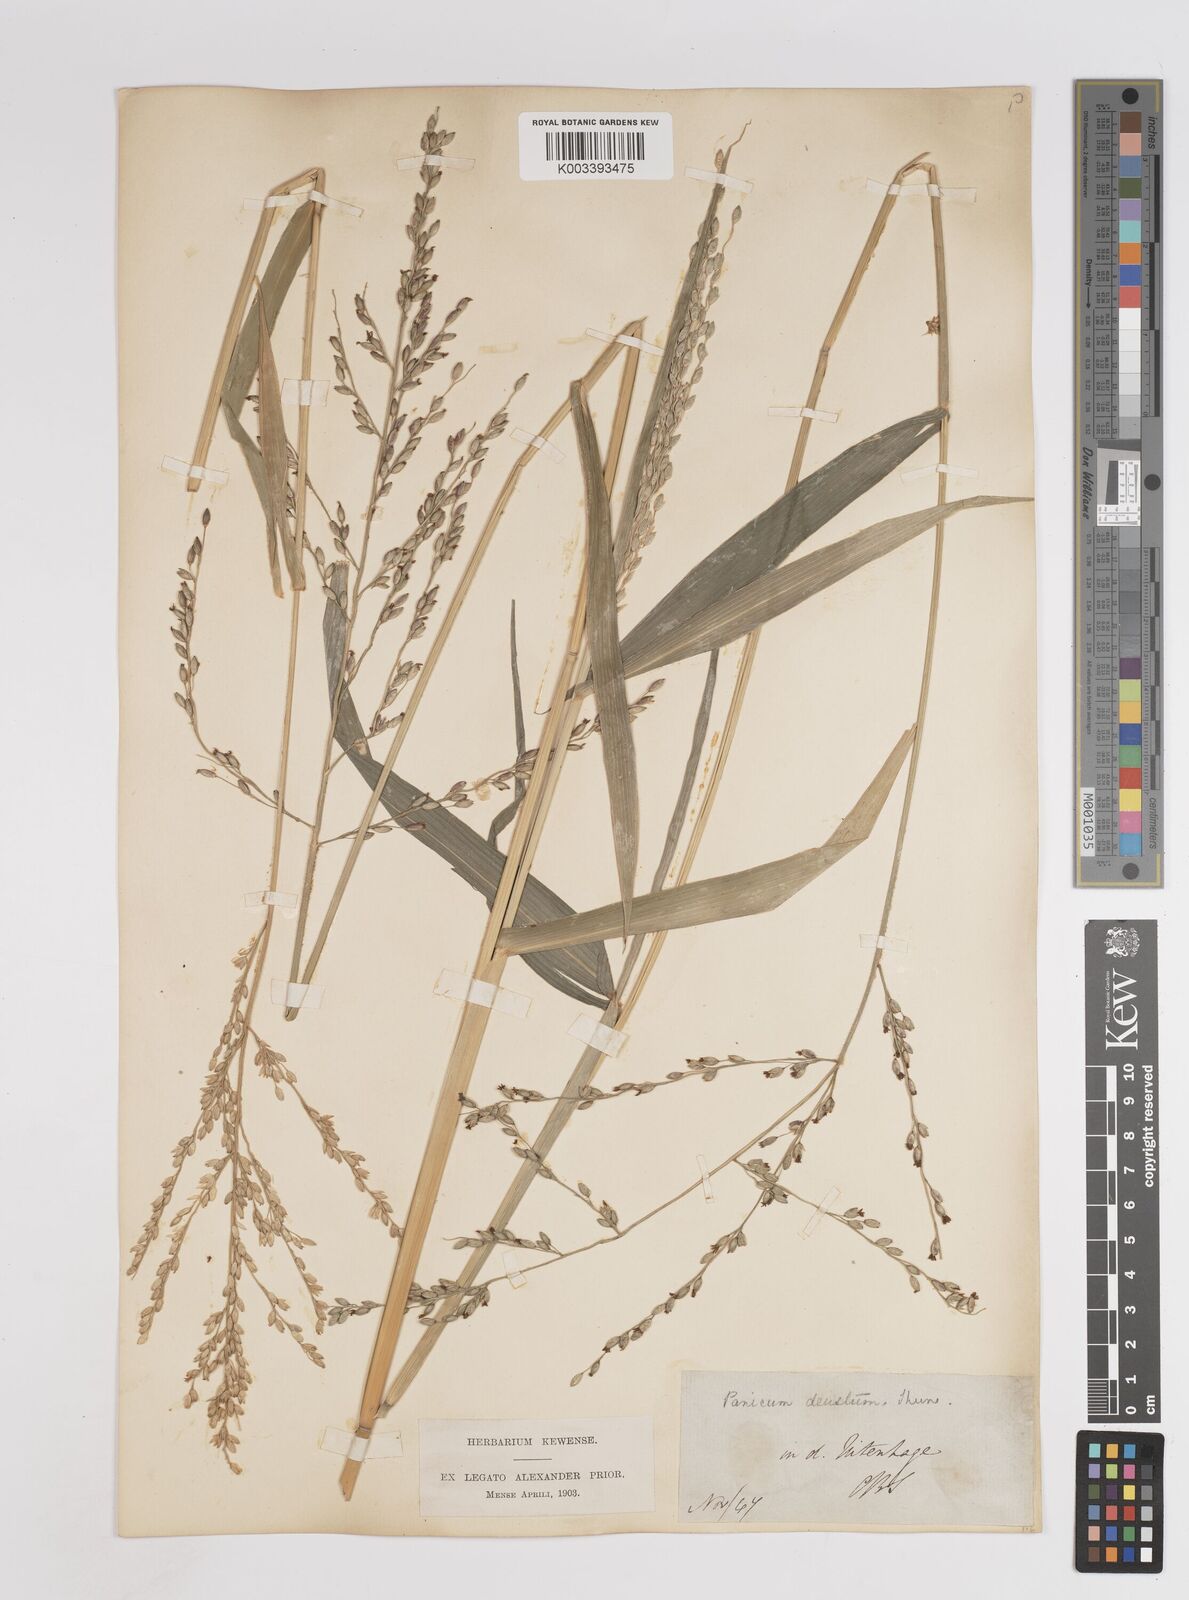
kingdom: Plantae
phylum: Tracheophyta
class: Liliopsida
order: Poales
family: Poaceae
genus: Panicum
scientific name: Panicum deustum
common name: Reed panicum
